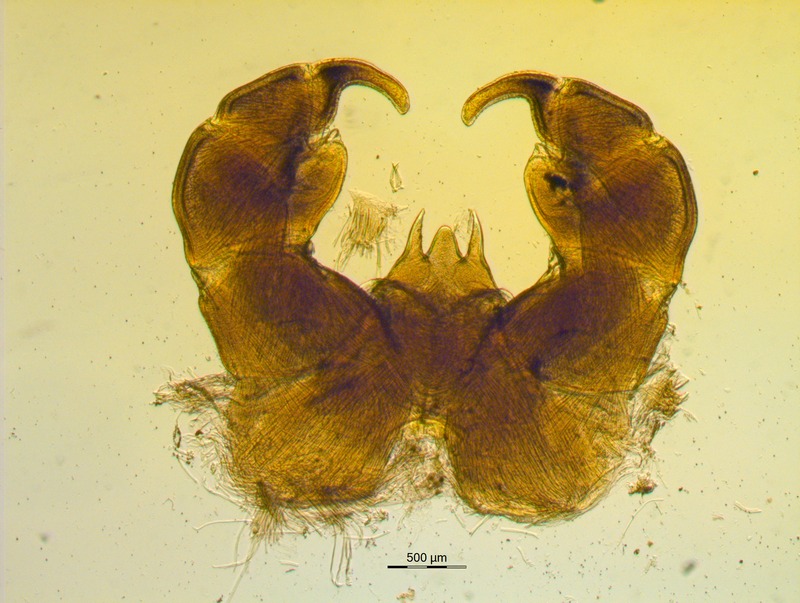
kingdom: Animalia
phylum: Arthropoda
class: Diplopoda
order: Glomerida
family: Glomeridae
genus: Onychoglomeris
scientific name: Onychoglomeris castanea
